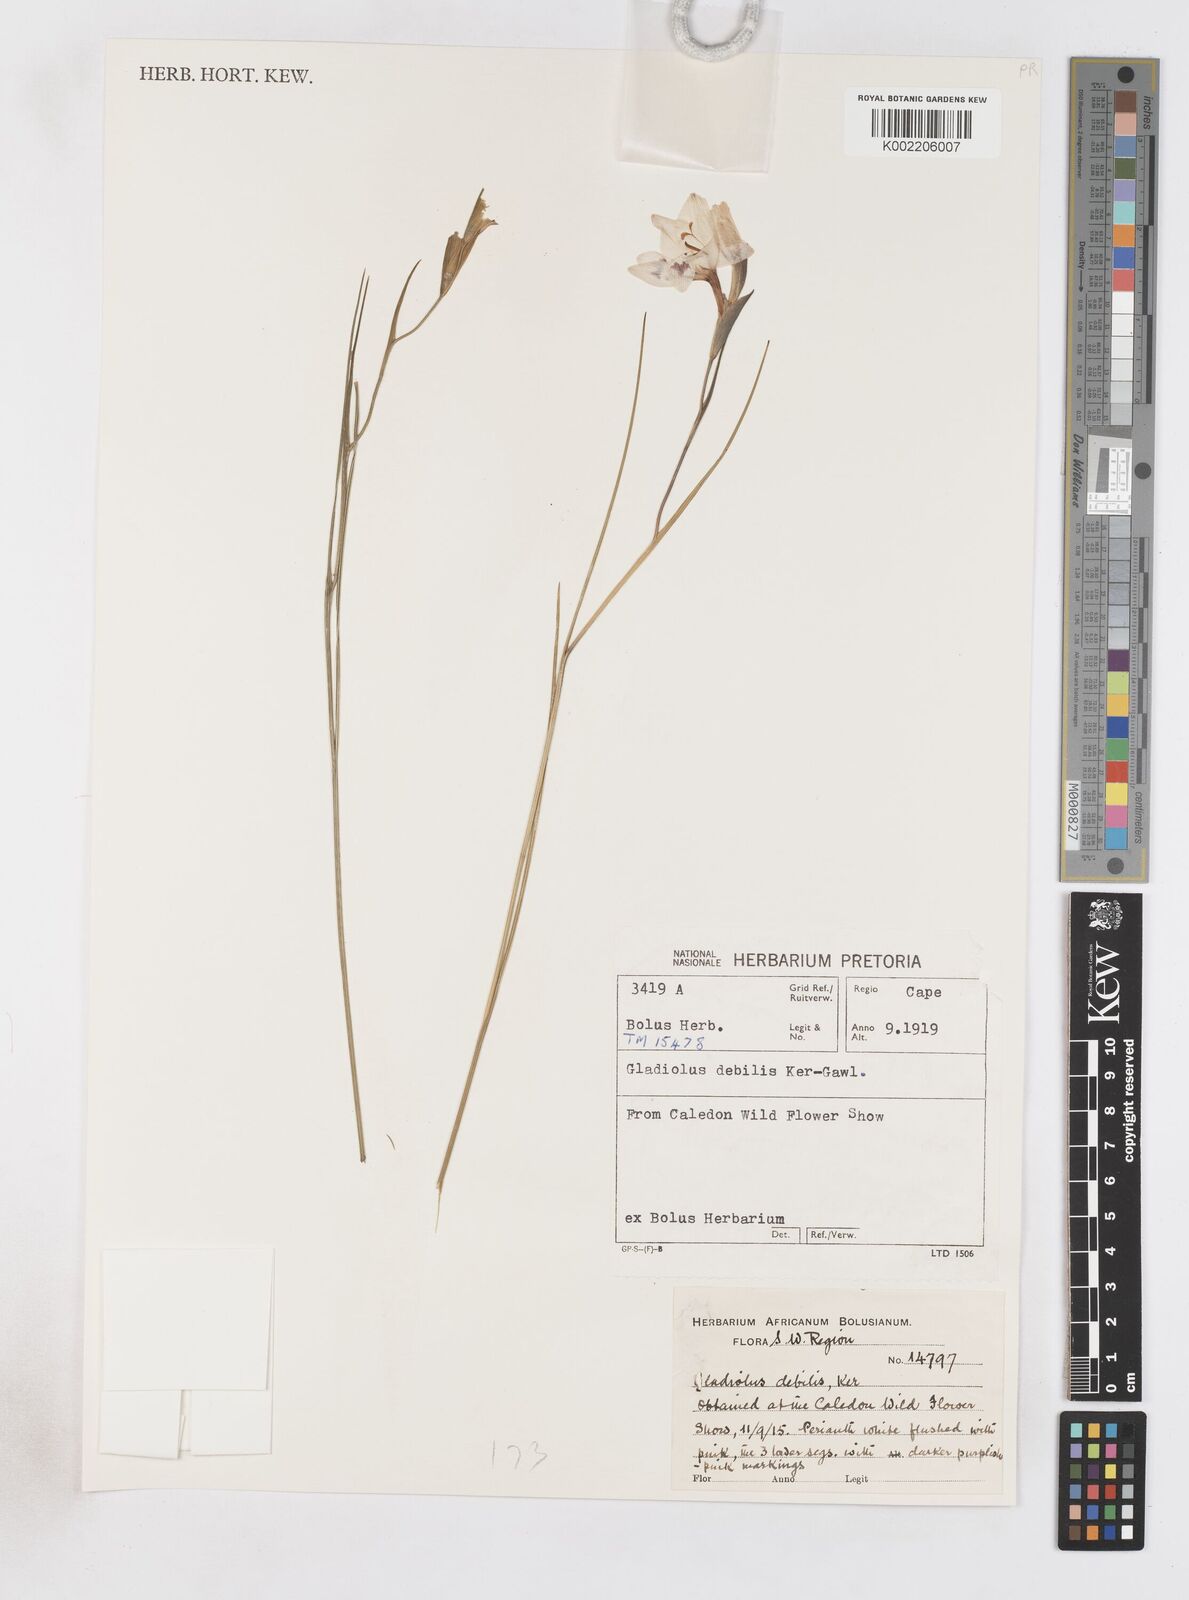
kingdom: Plantae
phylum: Tracheophyta
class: Liliopsida
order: Asparagales
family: Iridaceae
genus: Gladiolus
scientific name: Gladiolus debilis
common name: Painted-lady
